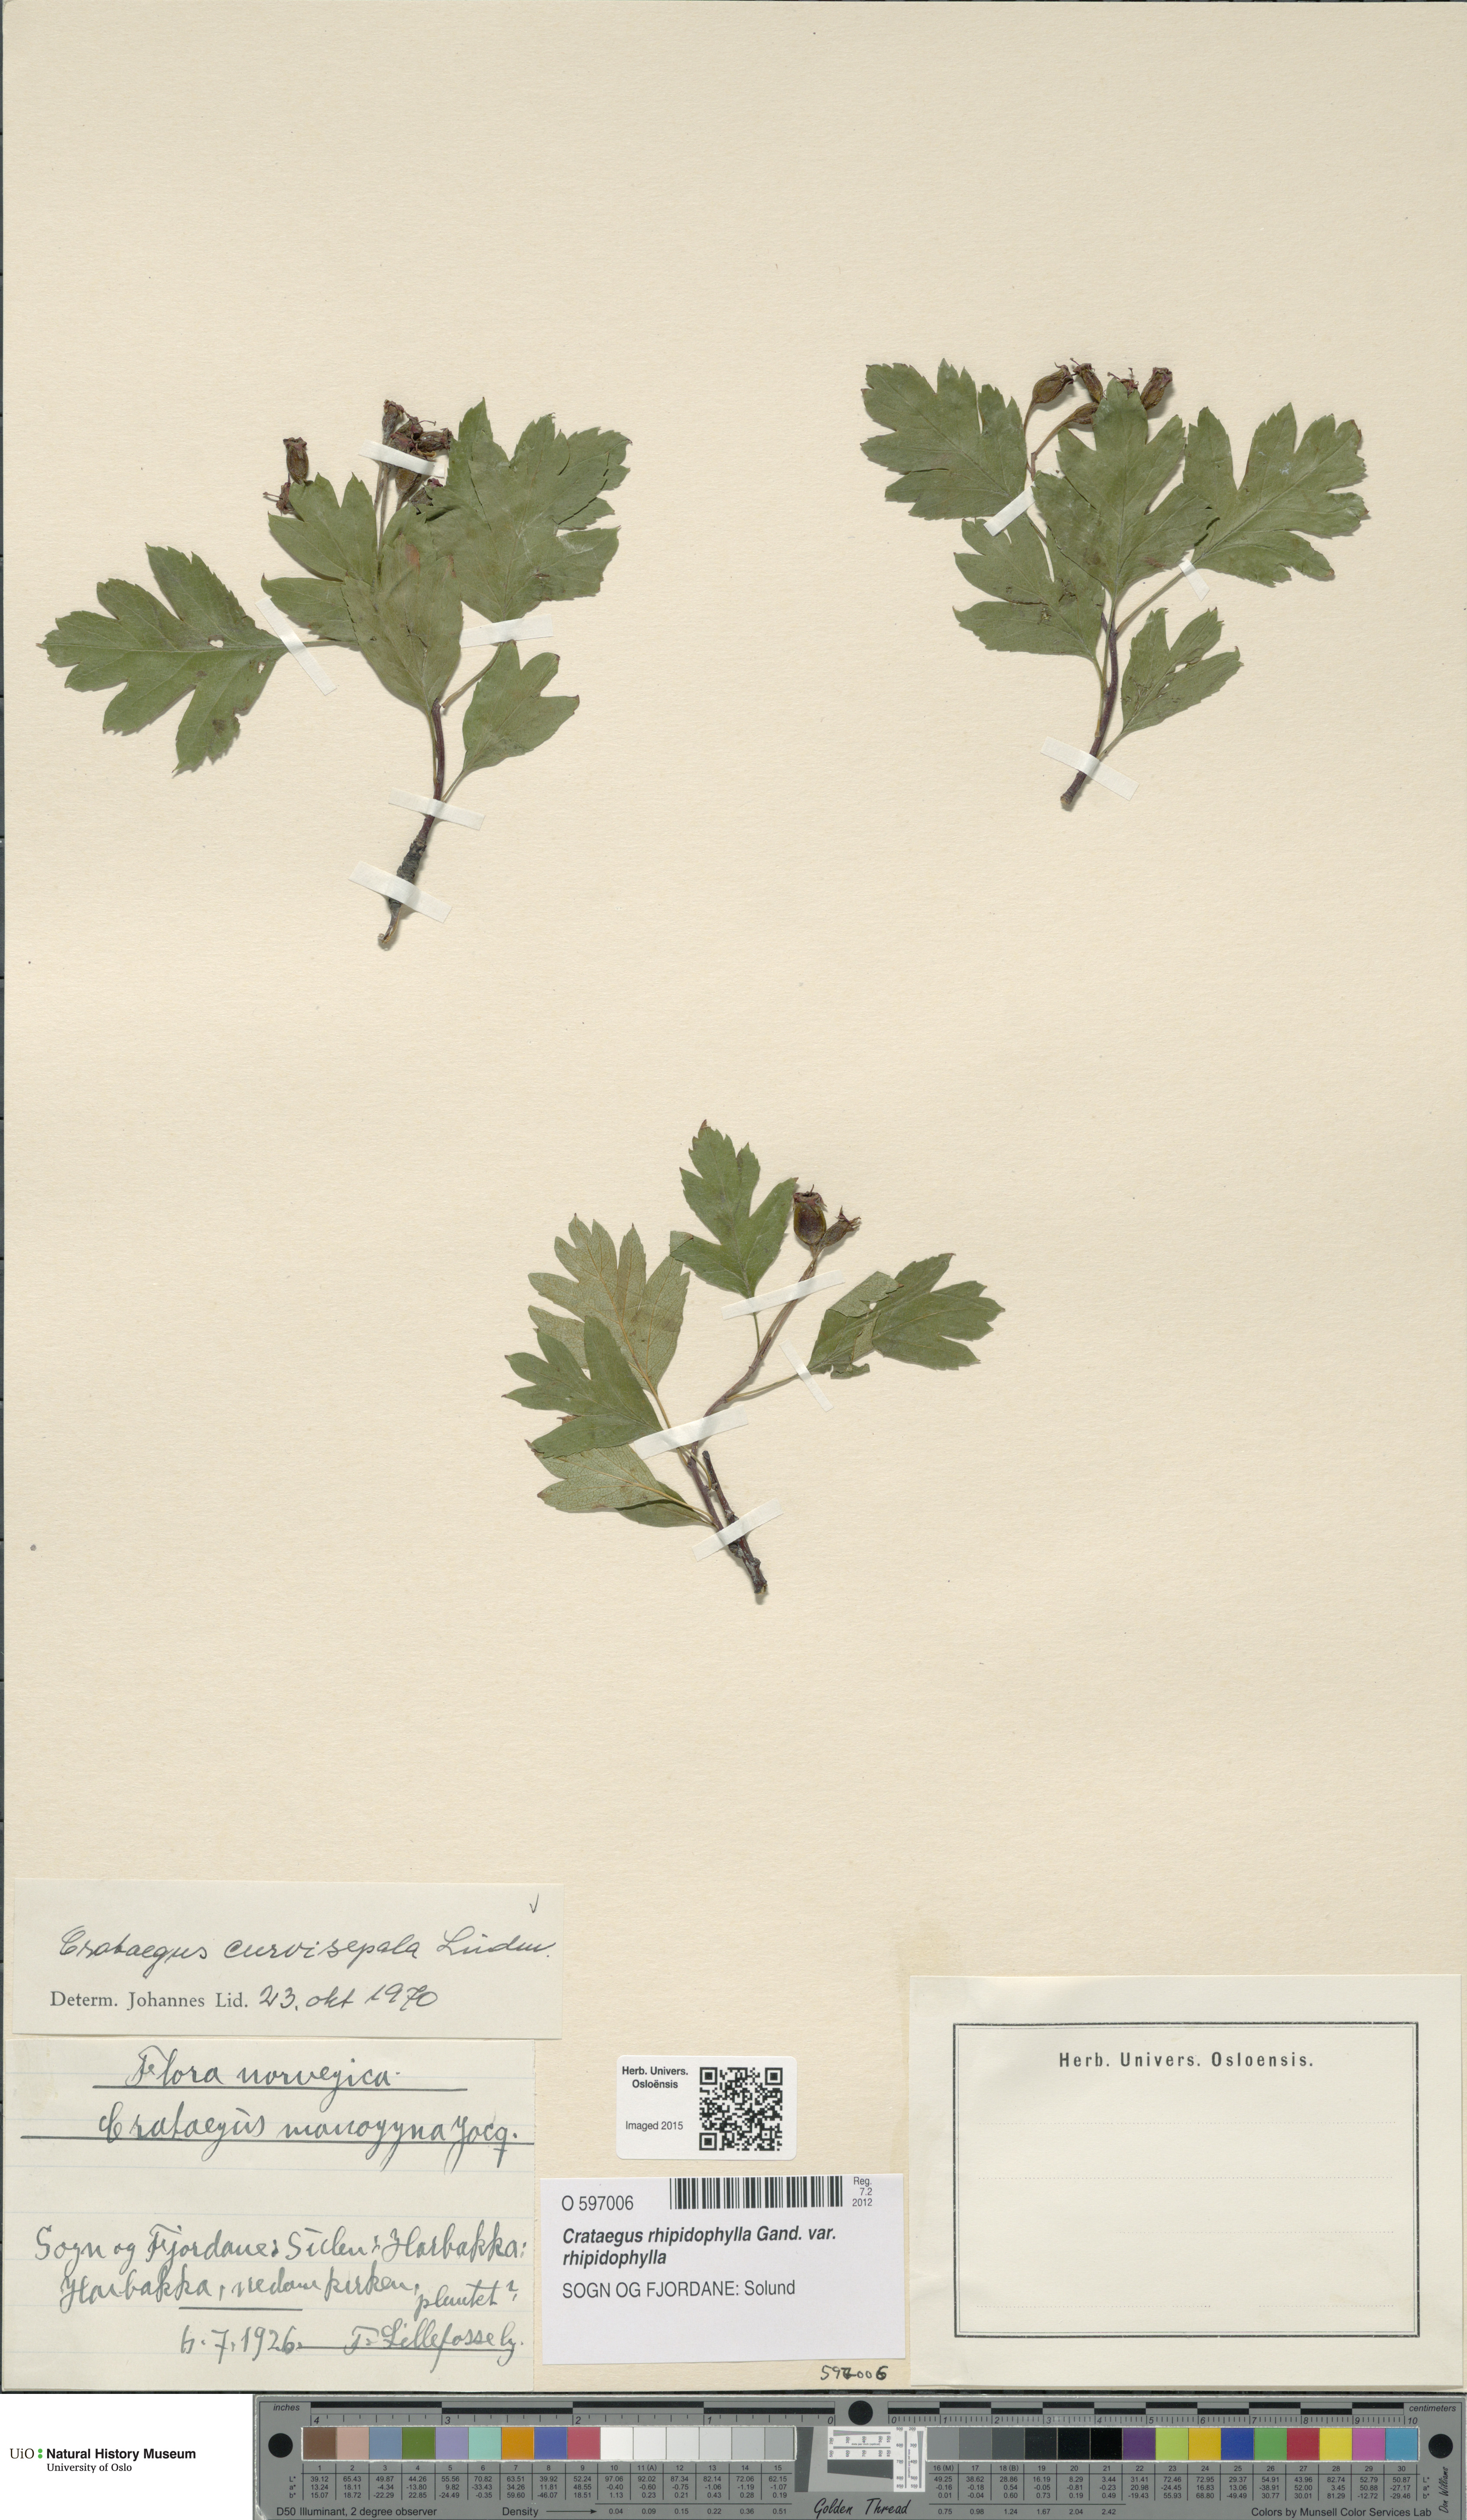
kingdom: Plantae
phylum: Tracheophyta
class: Magnoliopsida
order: Rosales
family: Rosaceae
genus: Crataegus
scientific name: Crataegus rhipidophylla
